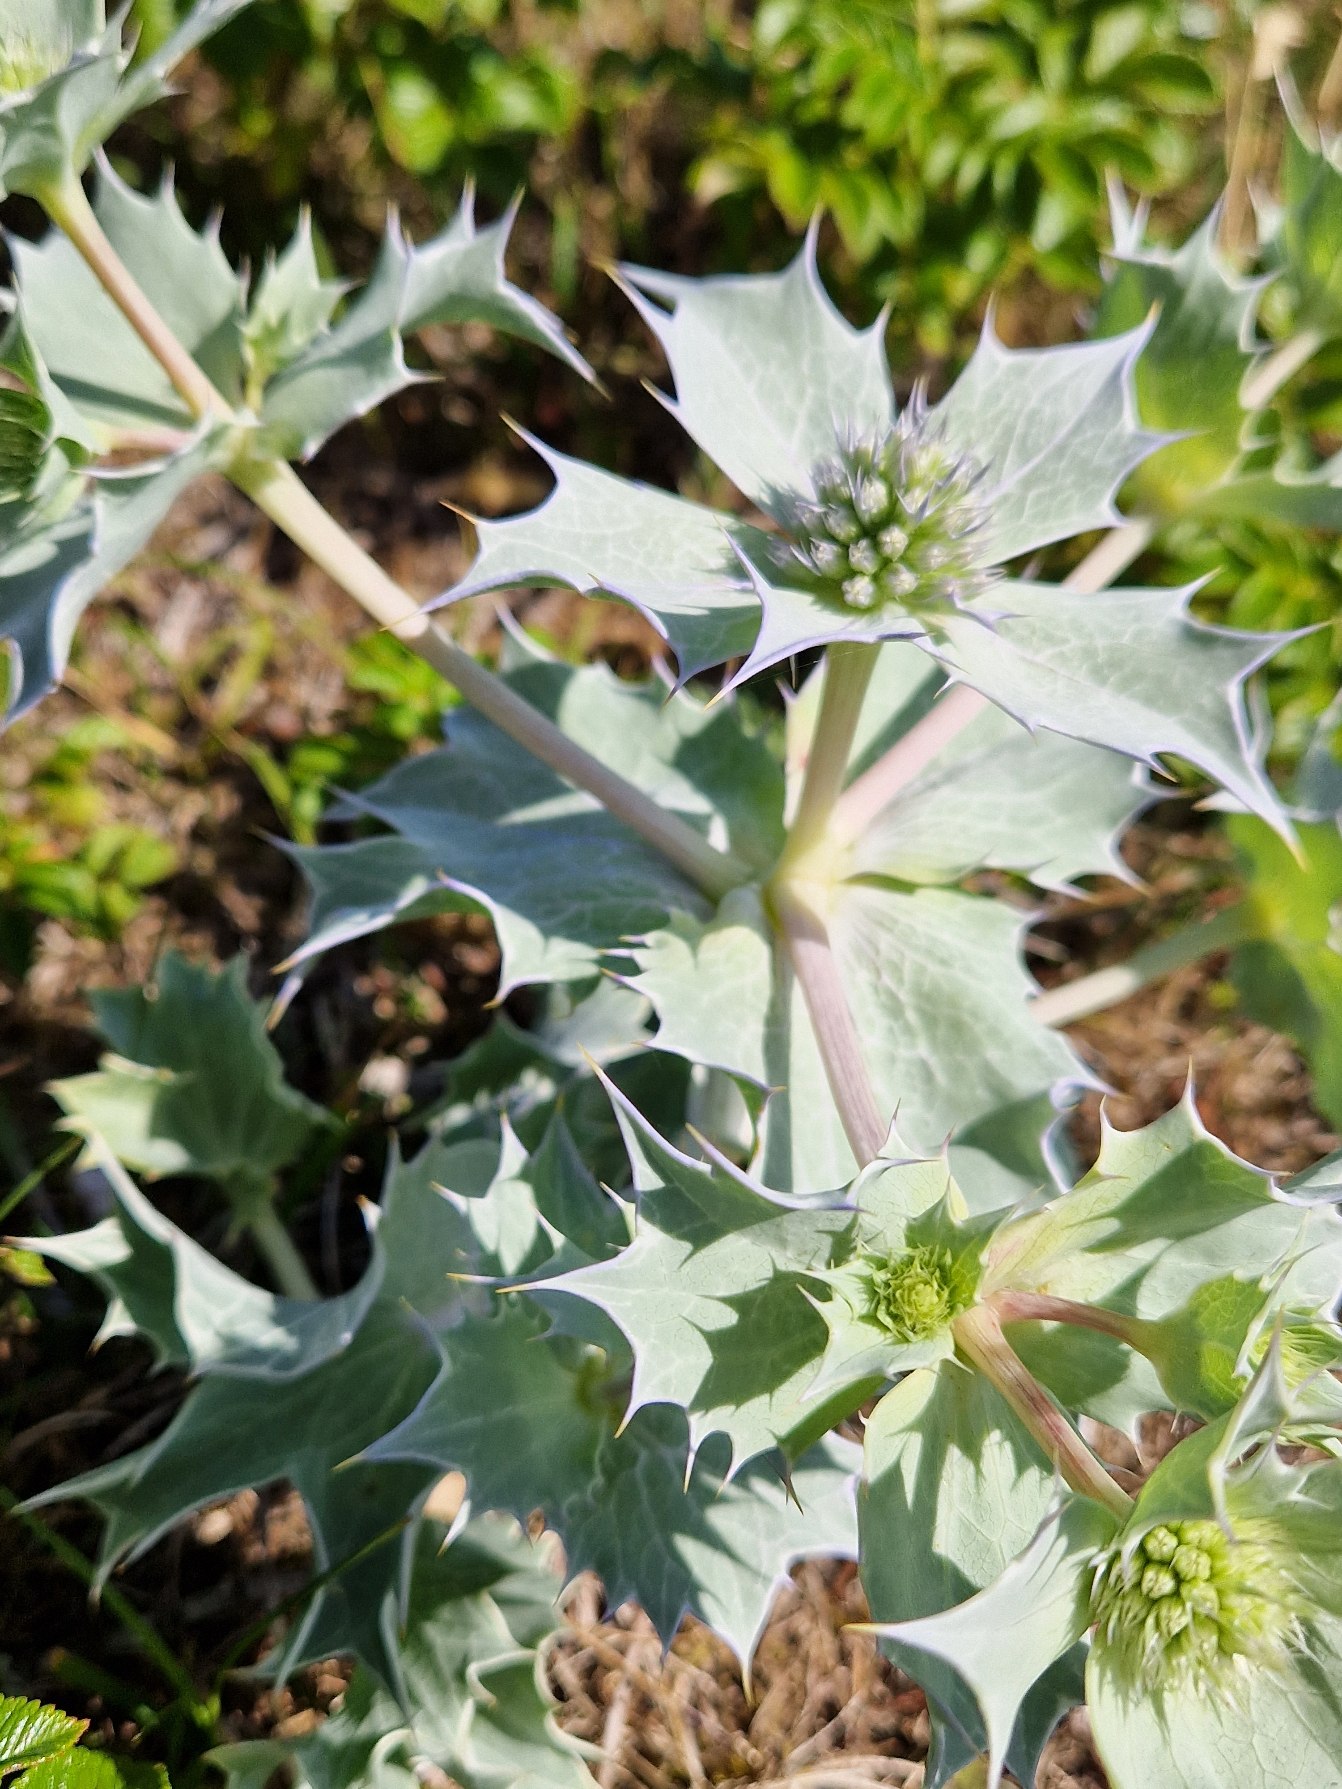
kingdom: Plantae
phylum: Tracheophyta
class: Magnoliopsida
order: Apiales
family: Apiaceae
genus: Eryngium
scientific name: Eryngium maritimum
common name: Strand-mandstro
